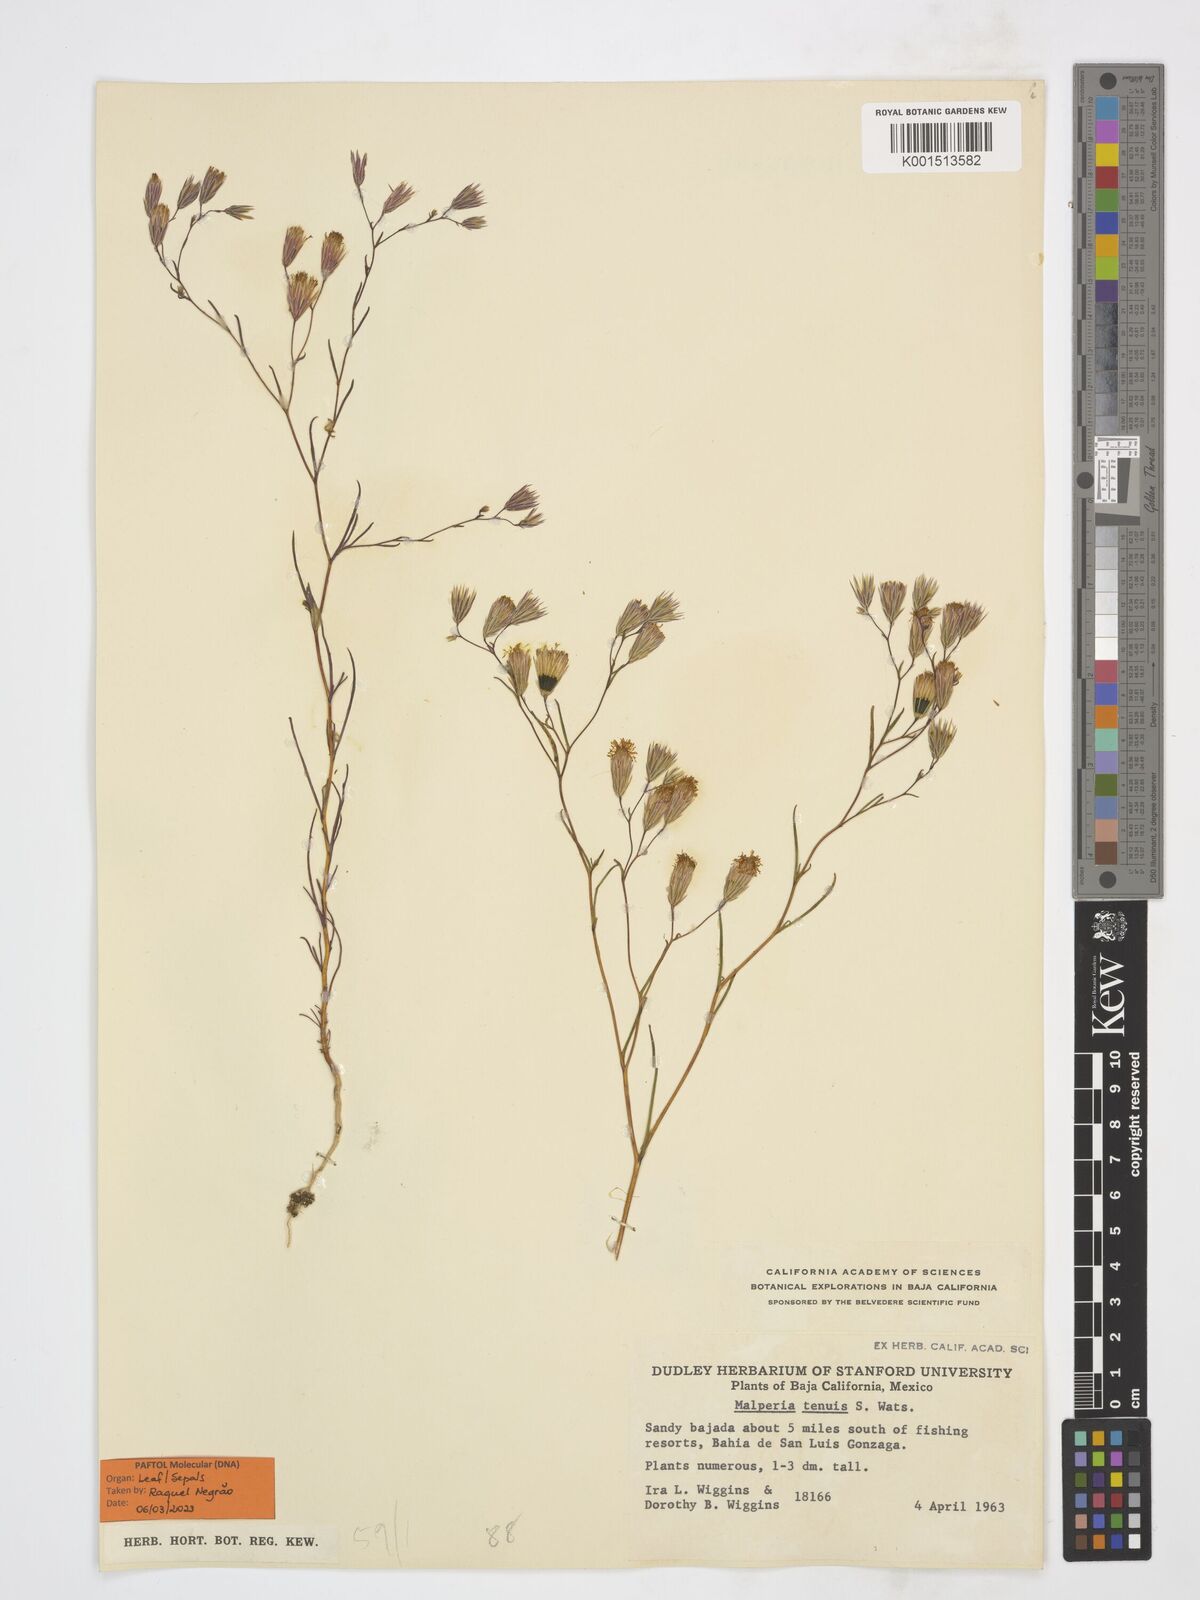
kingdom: Plantae
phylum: Tracheophyta
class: Magnoliopsida
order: Asterales
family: Asteraceae
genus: Malperia
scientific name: Malperia tenuis
